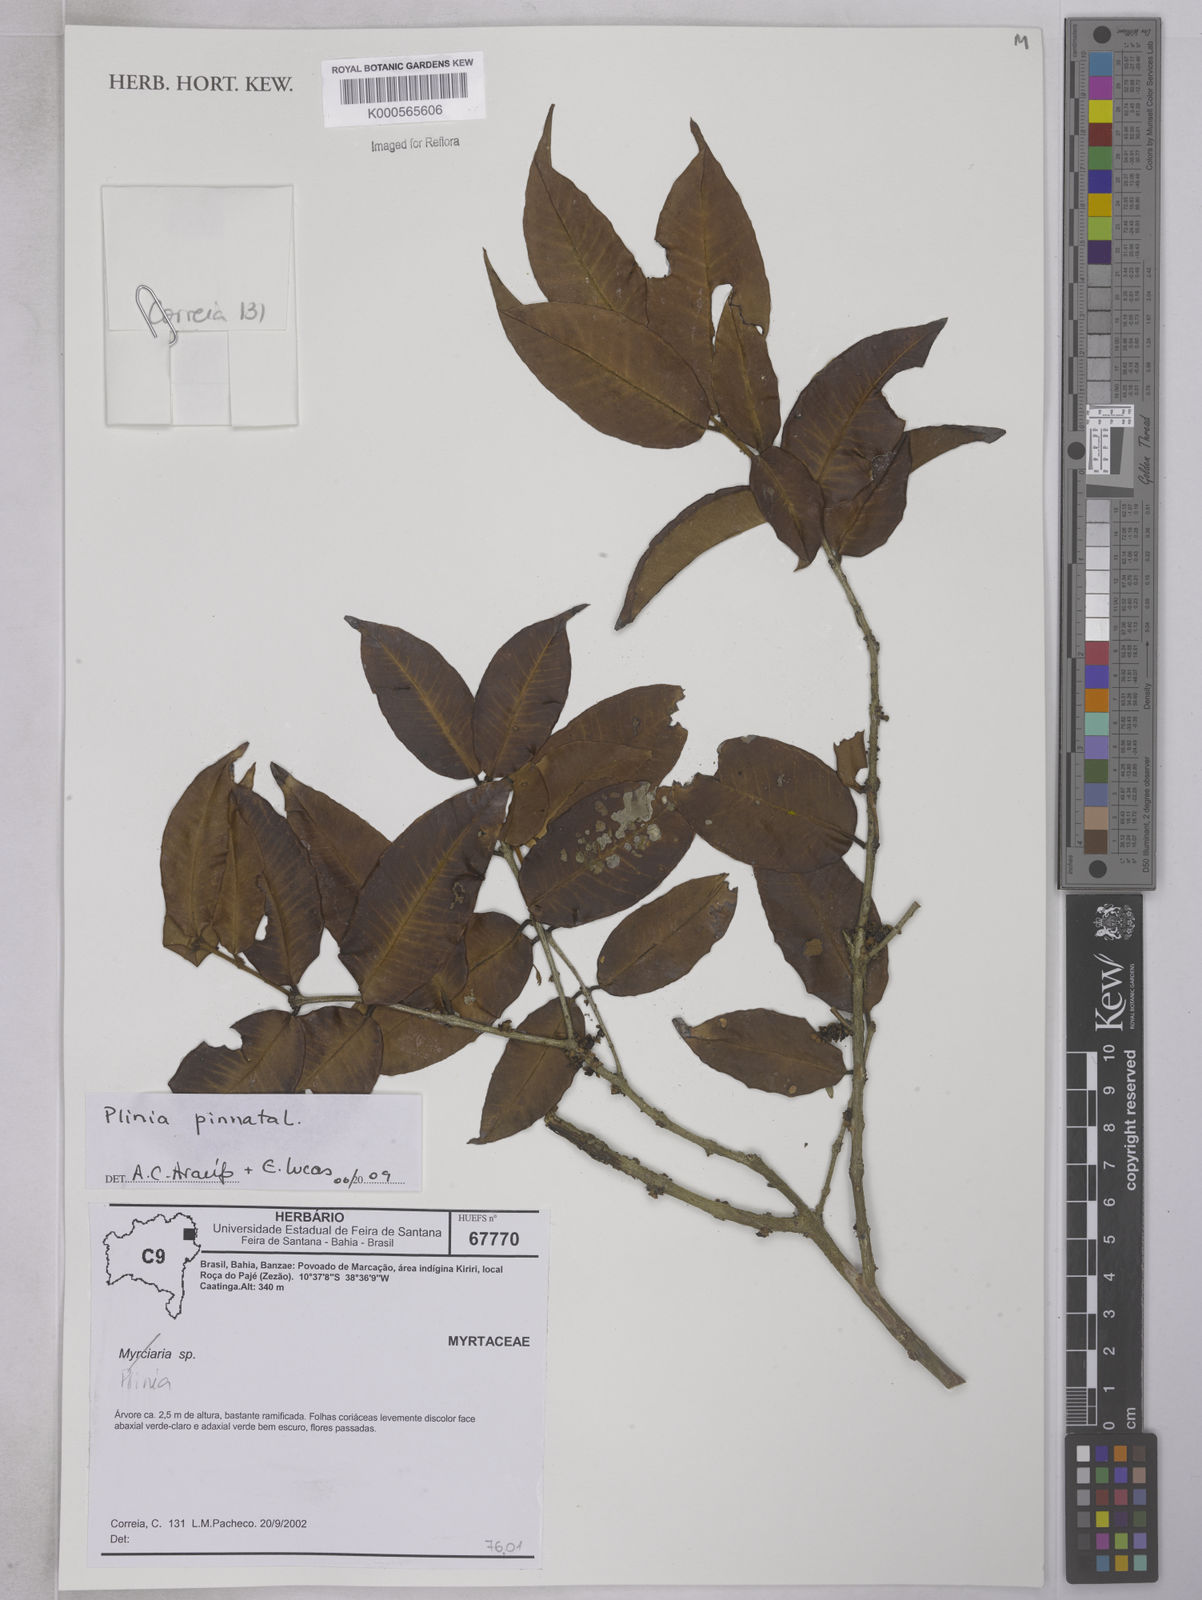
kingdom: Plantae
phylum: Tracheophyta
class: Magnoliopsida
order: Myrtales
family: Myrtaceae
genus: Plinia
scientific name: Plinia pinnata
